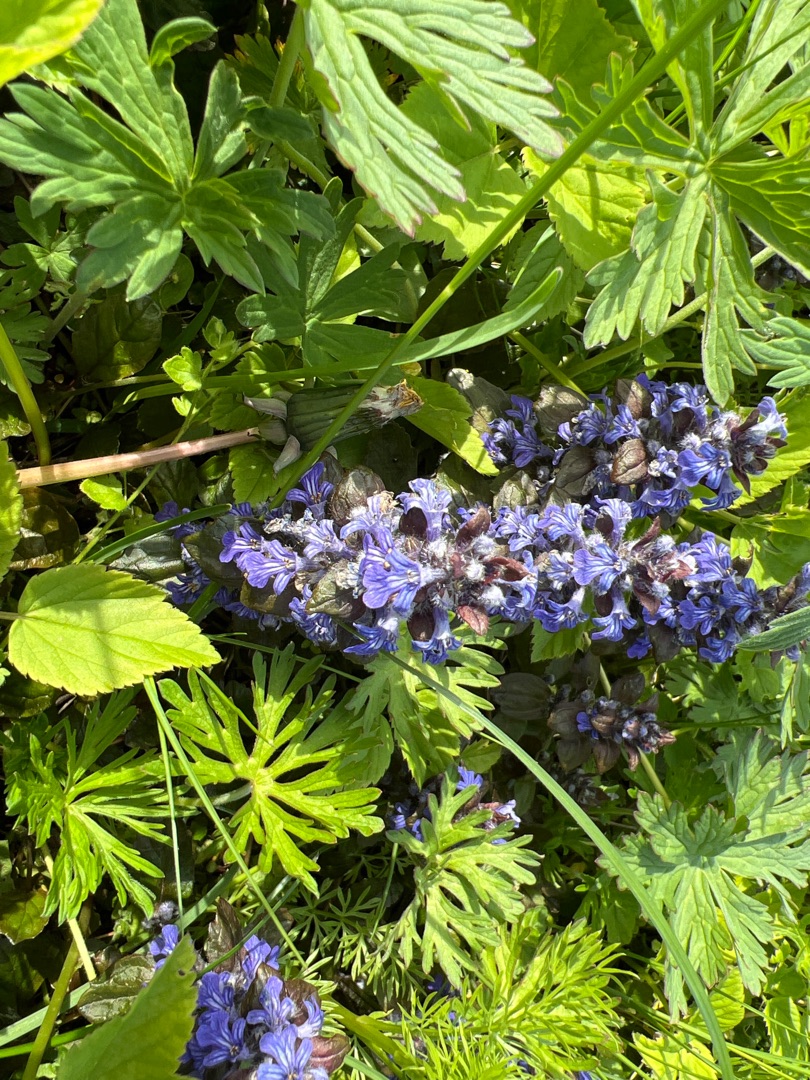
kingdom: Plantae
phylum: Tracheophyta
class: Magnoliopsida
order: Lamiales
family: Lamiaceae
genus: Ajuga
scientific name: Ajuga reptans
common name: Krybende læbeløs
